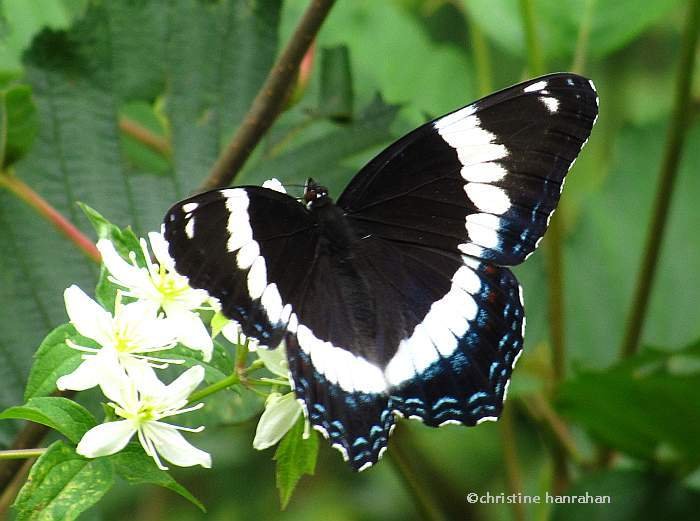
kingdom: Animalia
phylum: Arthropoda
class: Insecta
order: Lepidoptera
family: Nymphalidae
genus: Limenitis
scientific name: Limenitis arthemis
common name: Red-spotted Admiral
